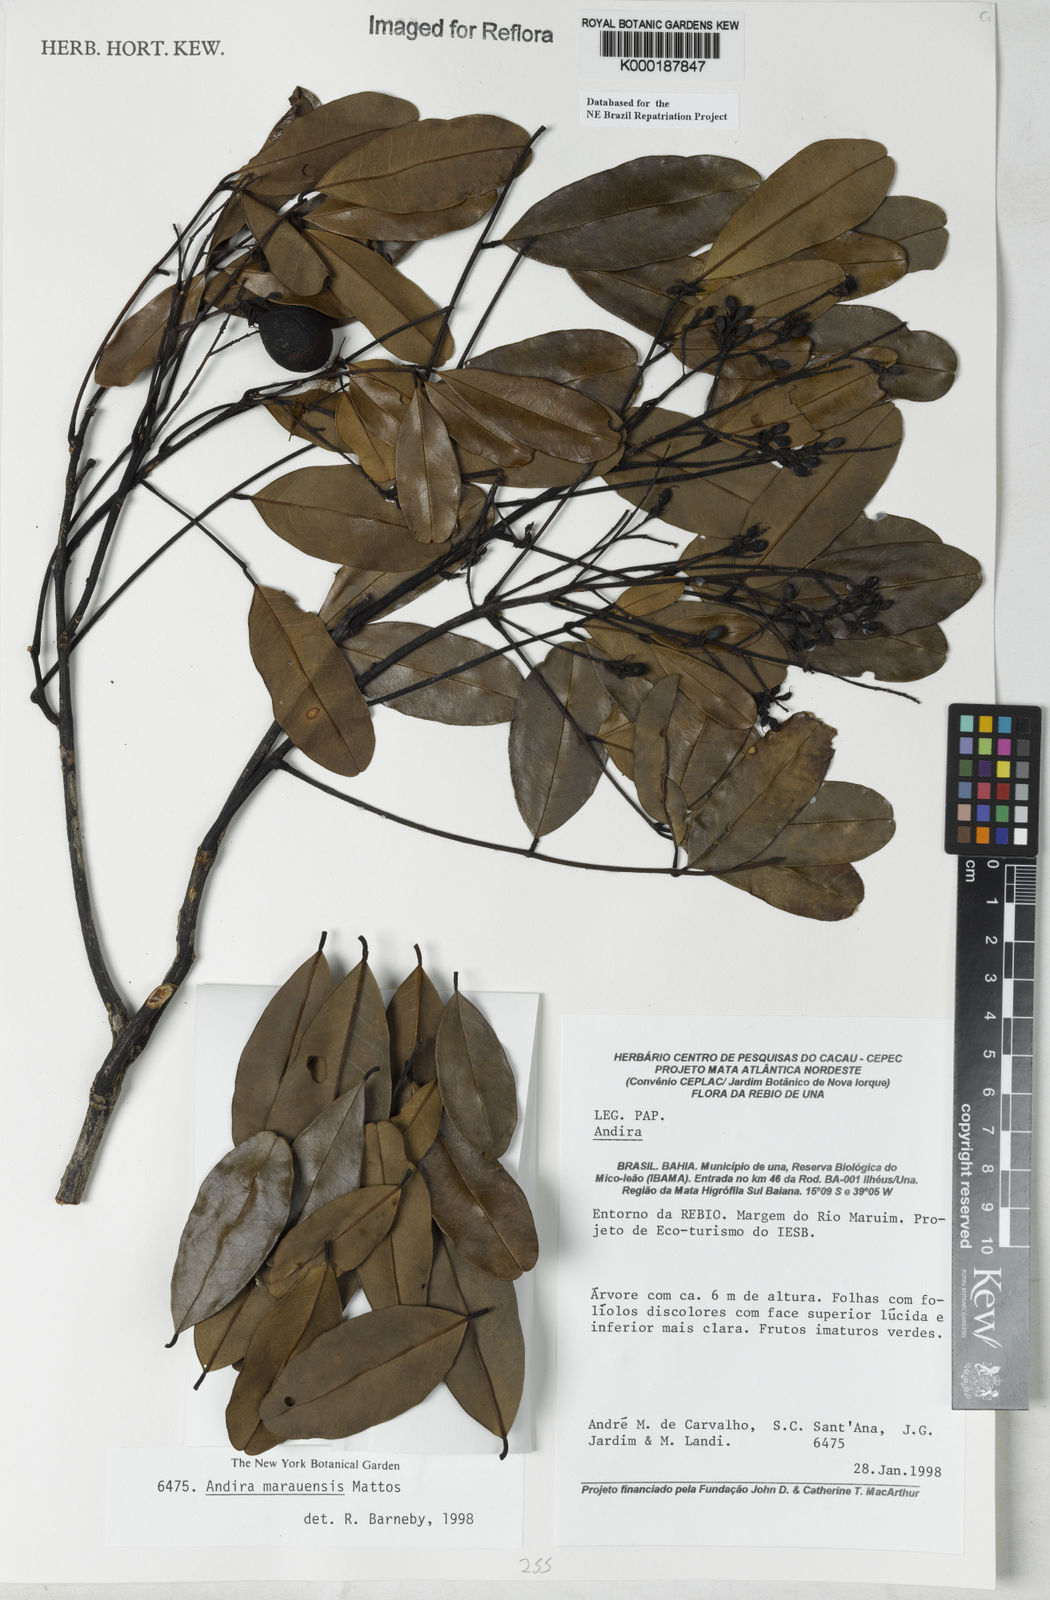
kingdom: Plantae
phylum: Tracheophyta
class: Magnoliopsida
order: Fabales
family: Fabaceae
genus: Andira
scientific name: Andira marauensis
